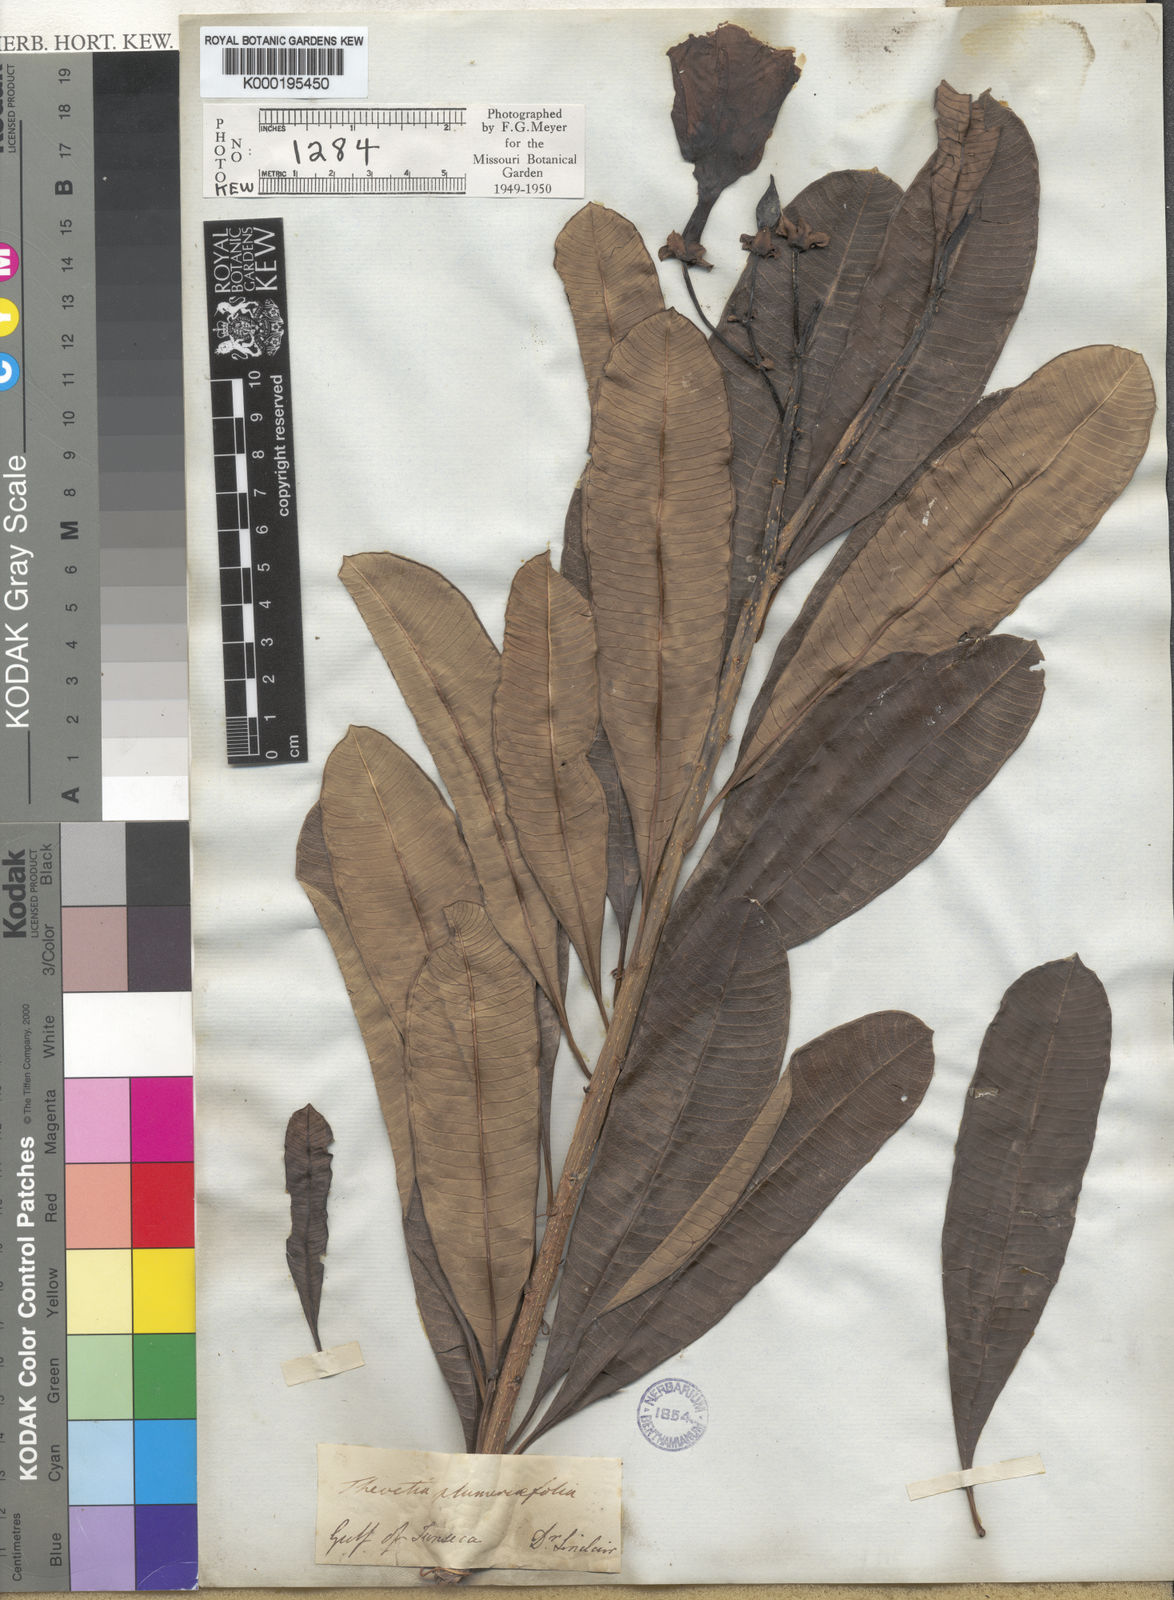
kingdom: Plantae
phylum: Tracheophyta
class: Magnoliopsida
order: Gentianales
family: Apocynaceae
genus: Cascabela
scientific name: Cascabela ovata
